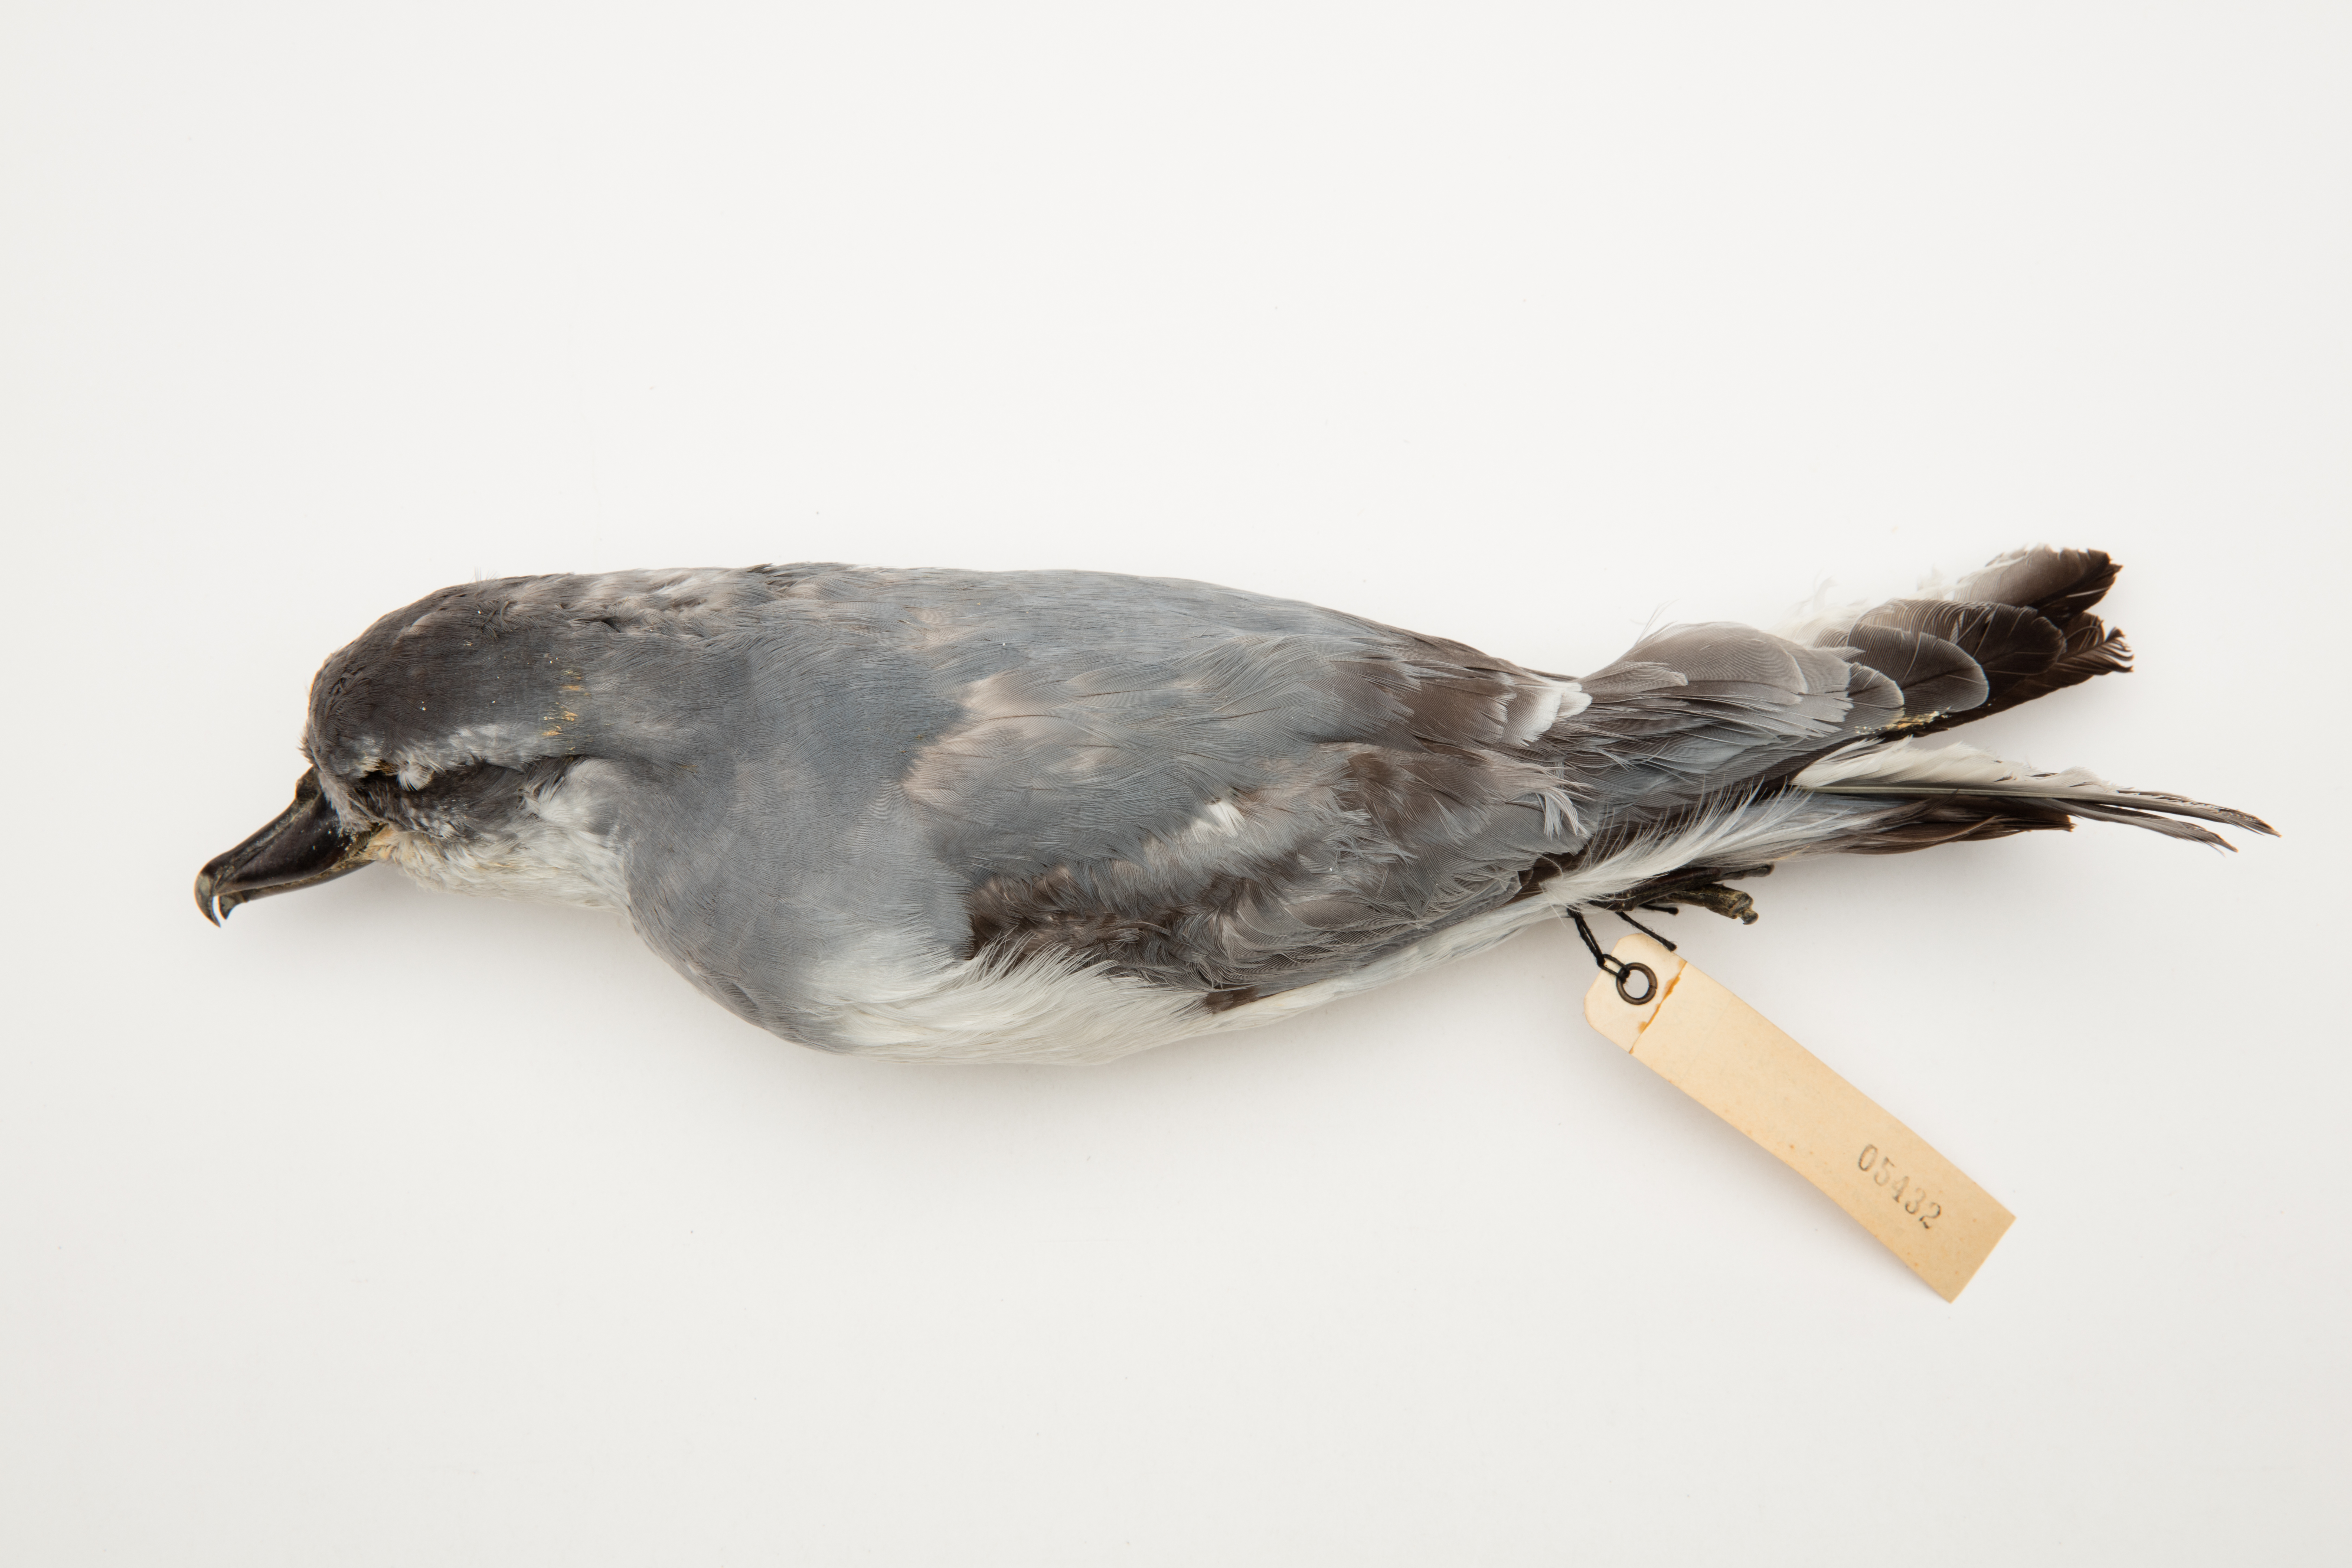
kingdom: Animalia
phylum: Chordata
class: Aves
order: Procellariiformes
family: Procellariidae
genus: Pachyptila
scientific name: Pachyptila vittata
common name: Broad-billed prion
